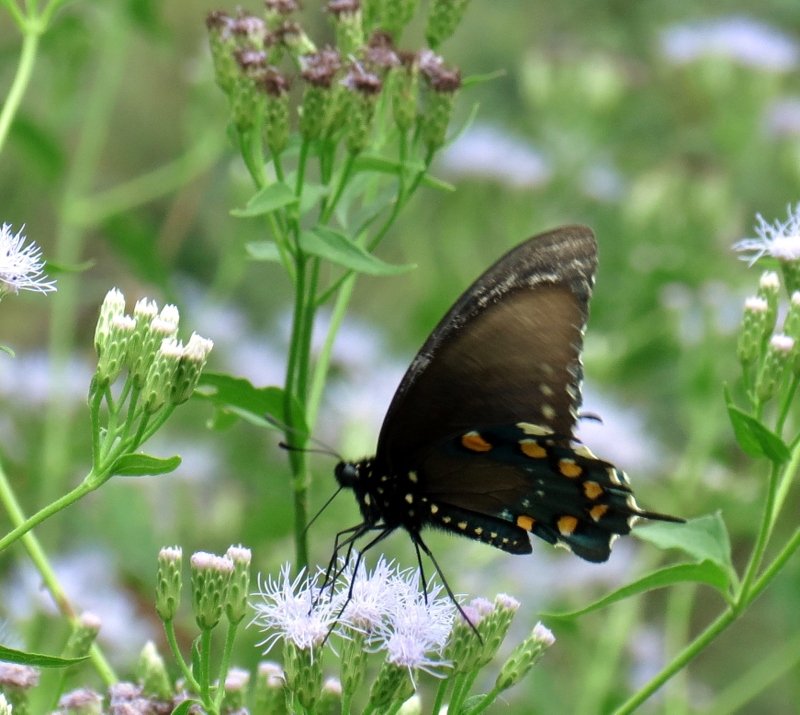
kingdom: Animalia
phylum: Arthropoda
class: Insecta
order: Lepidoptera
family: Papilionidae
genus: Battus
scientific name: Battus philenor
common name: Pipevine Swallowtail
